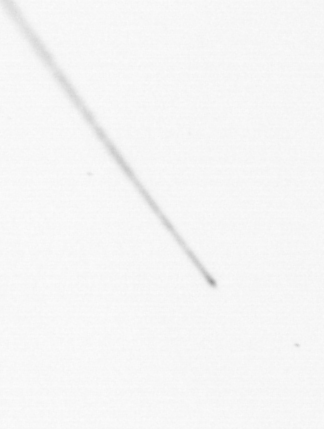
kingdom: Chromista
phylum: Ochrophyta
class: Bacillariophyceae
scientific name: Bacillariophyceae
